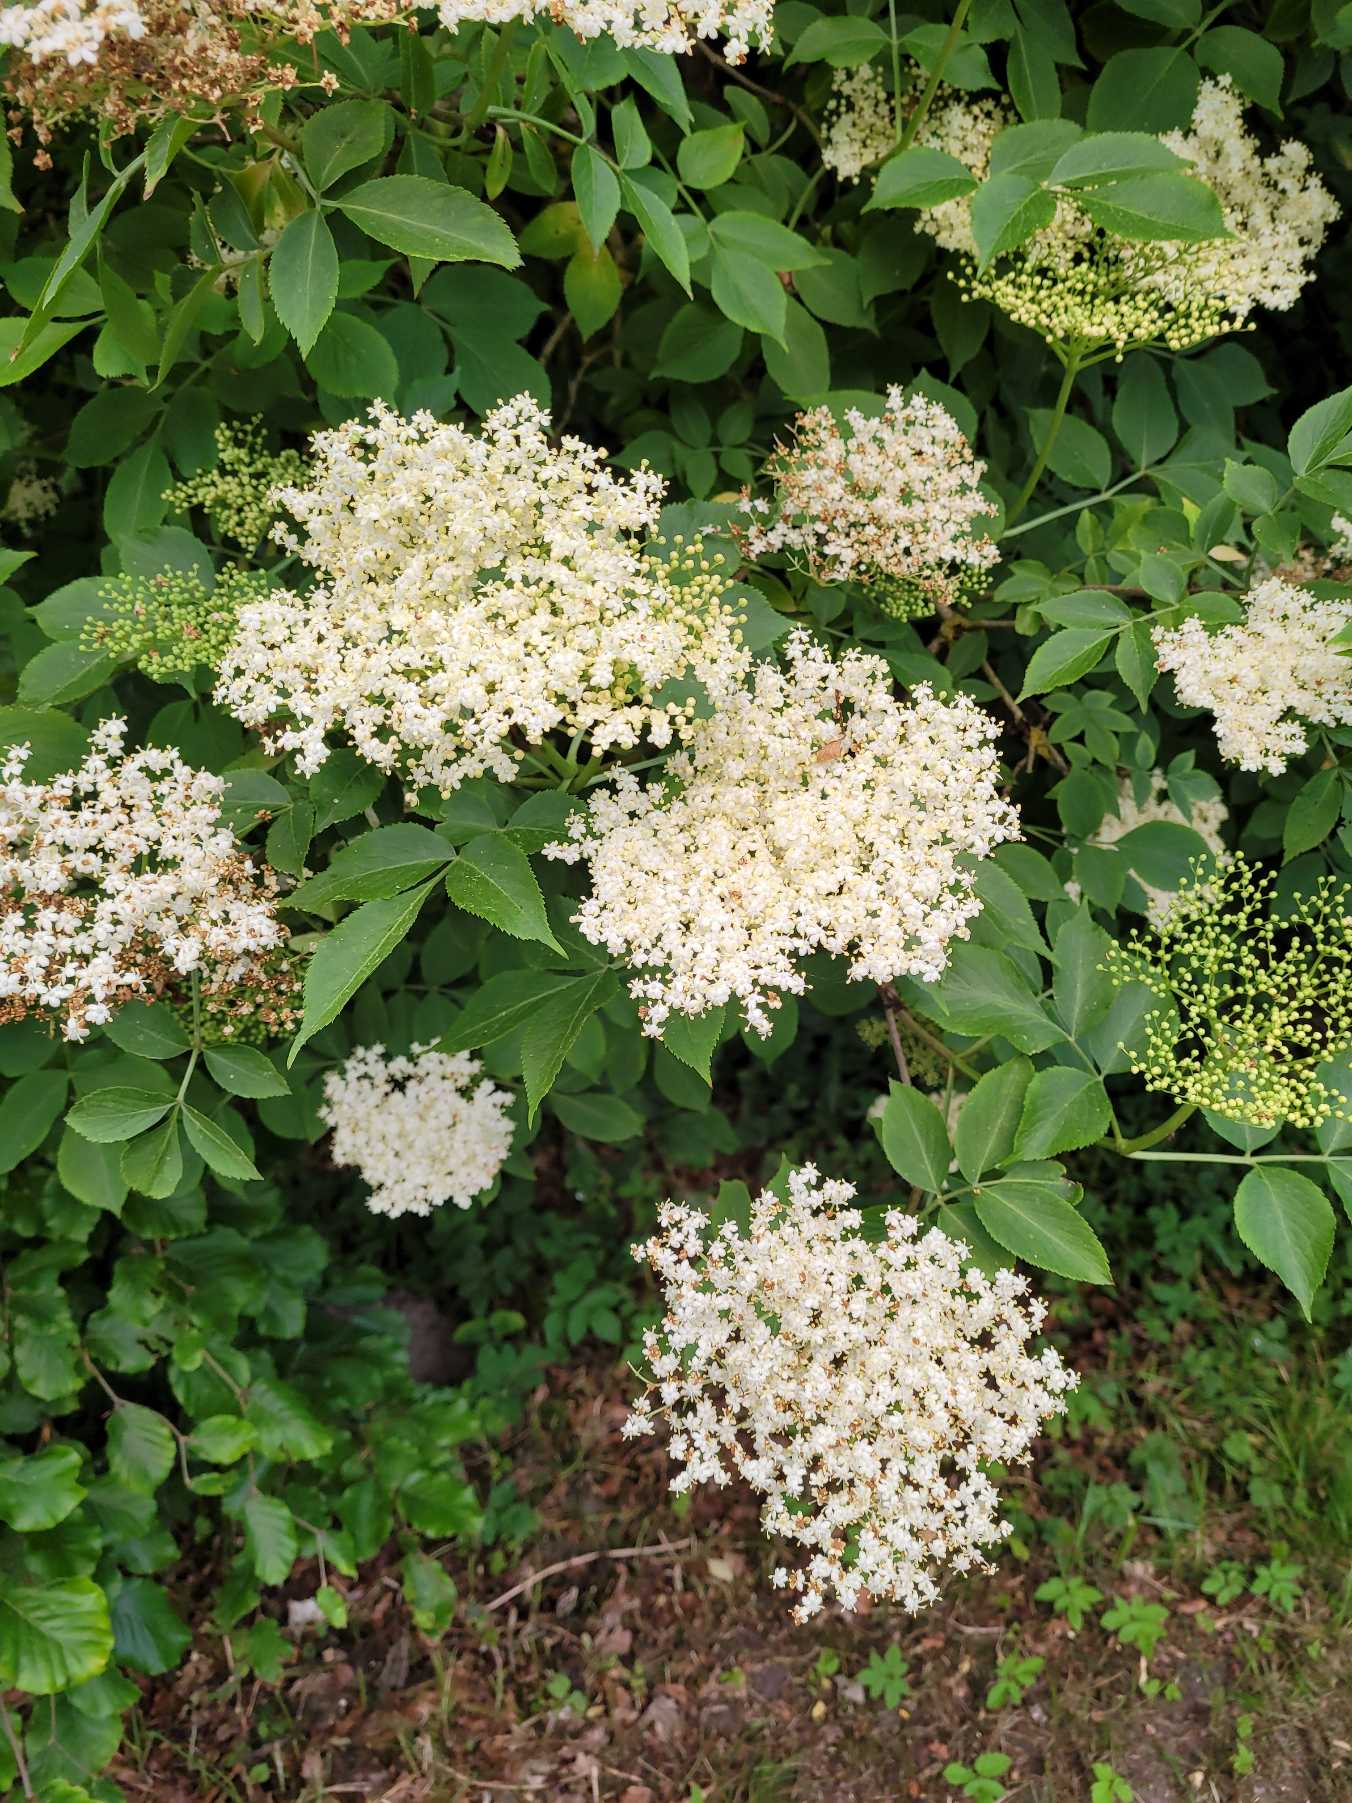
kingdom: Plantae
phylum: Tracheophyta
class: Magnoliopsida
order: Dipsacales
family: Viburnaceae
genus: Sambucus
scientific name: Sambucus nigra
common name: Almindelig hyld
